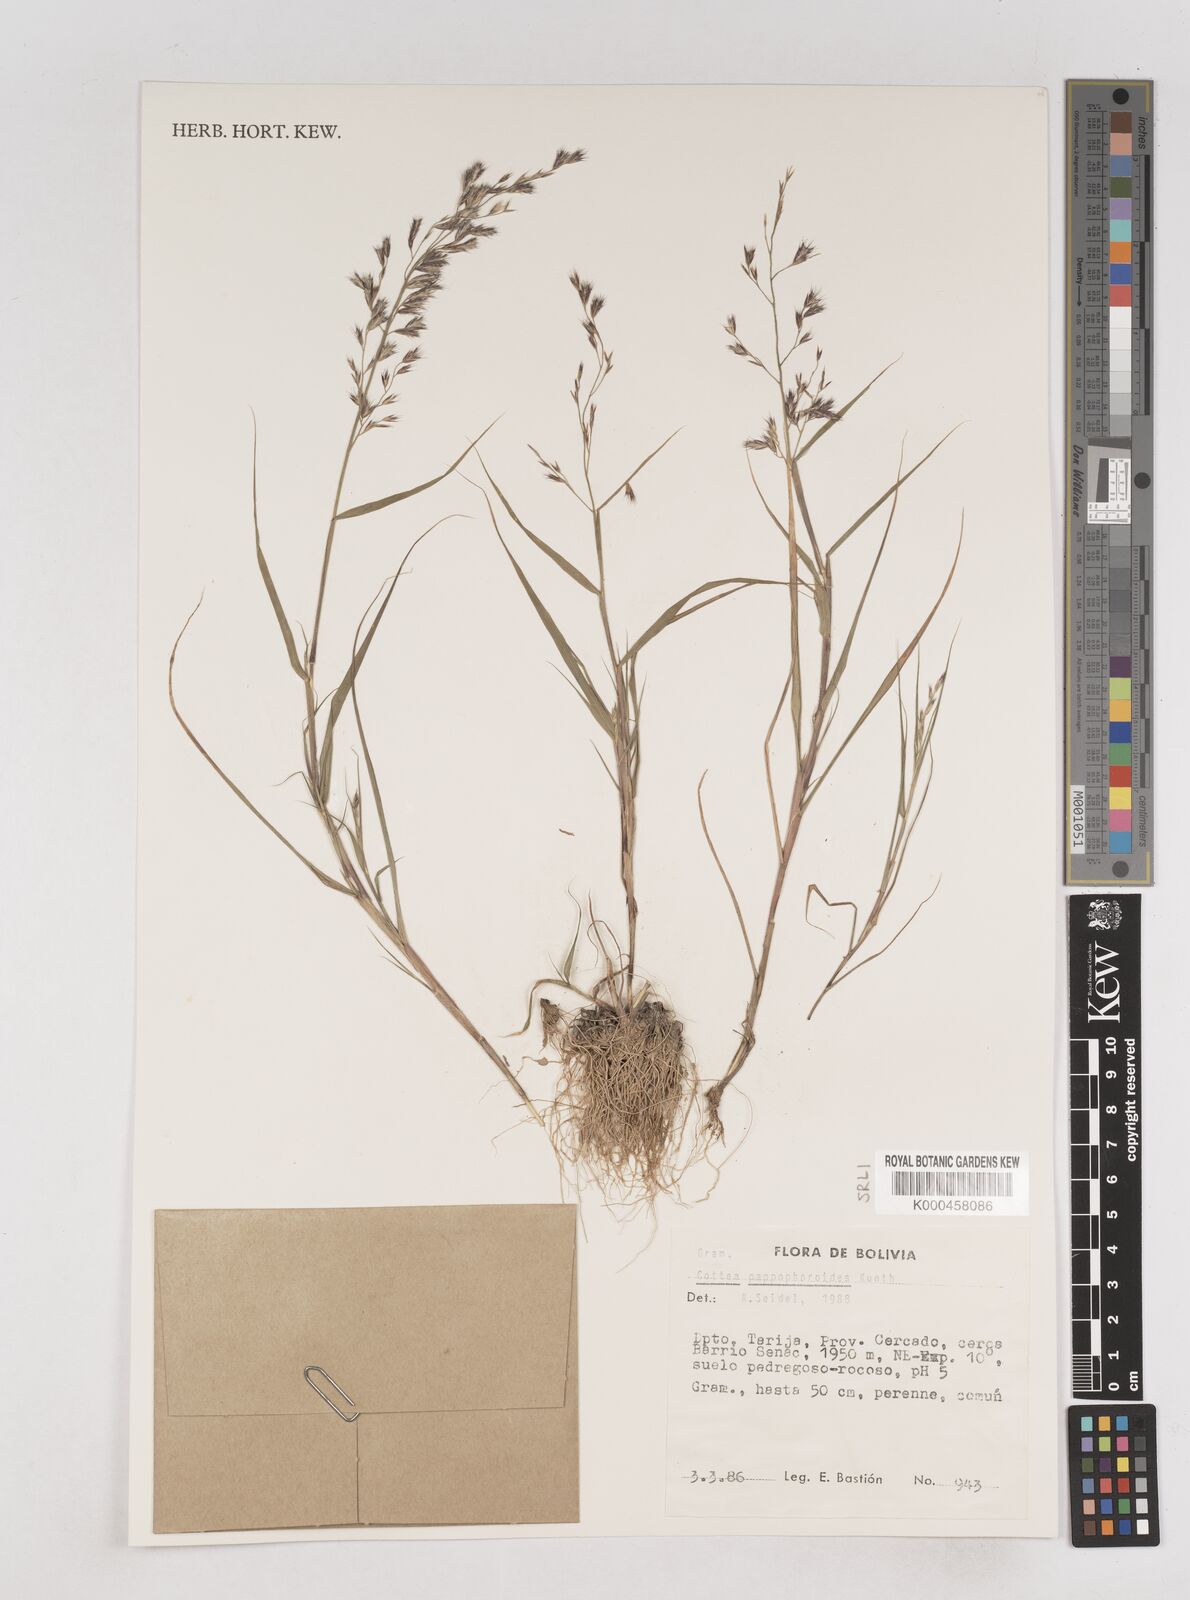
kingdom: Plantae
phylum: Tracheophyta
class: Liliopsida
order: Poales
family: Poaceae
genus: Cottea
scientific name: Cottea
